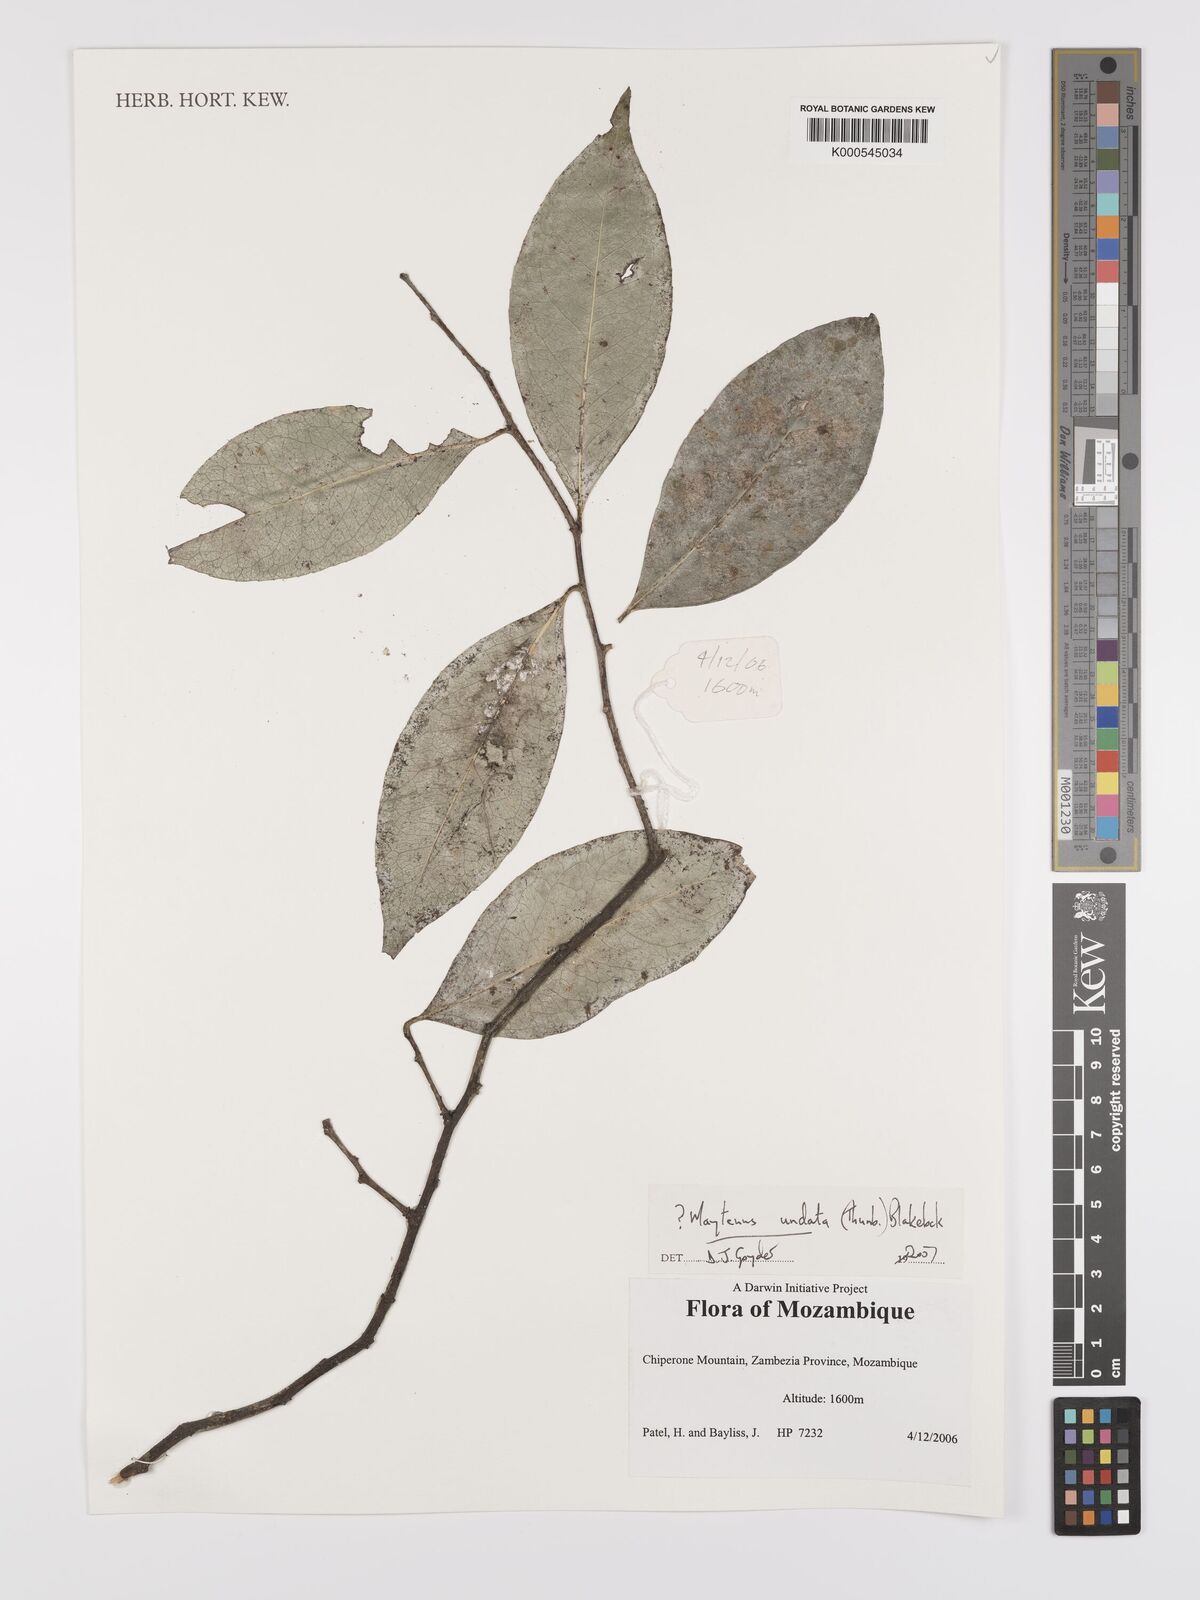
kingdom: Plantae
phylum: Tracheophyta
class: Magnoliopsida
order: Celastrales
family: Celastraceae
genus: Catha
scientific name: Catha edulis
